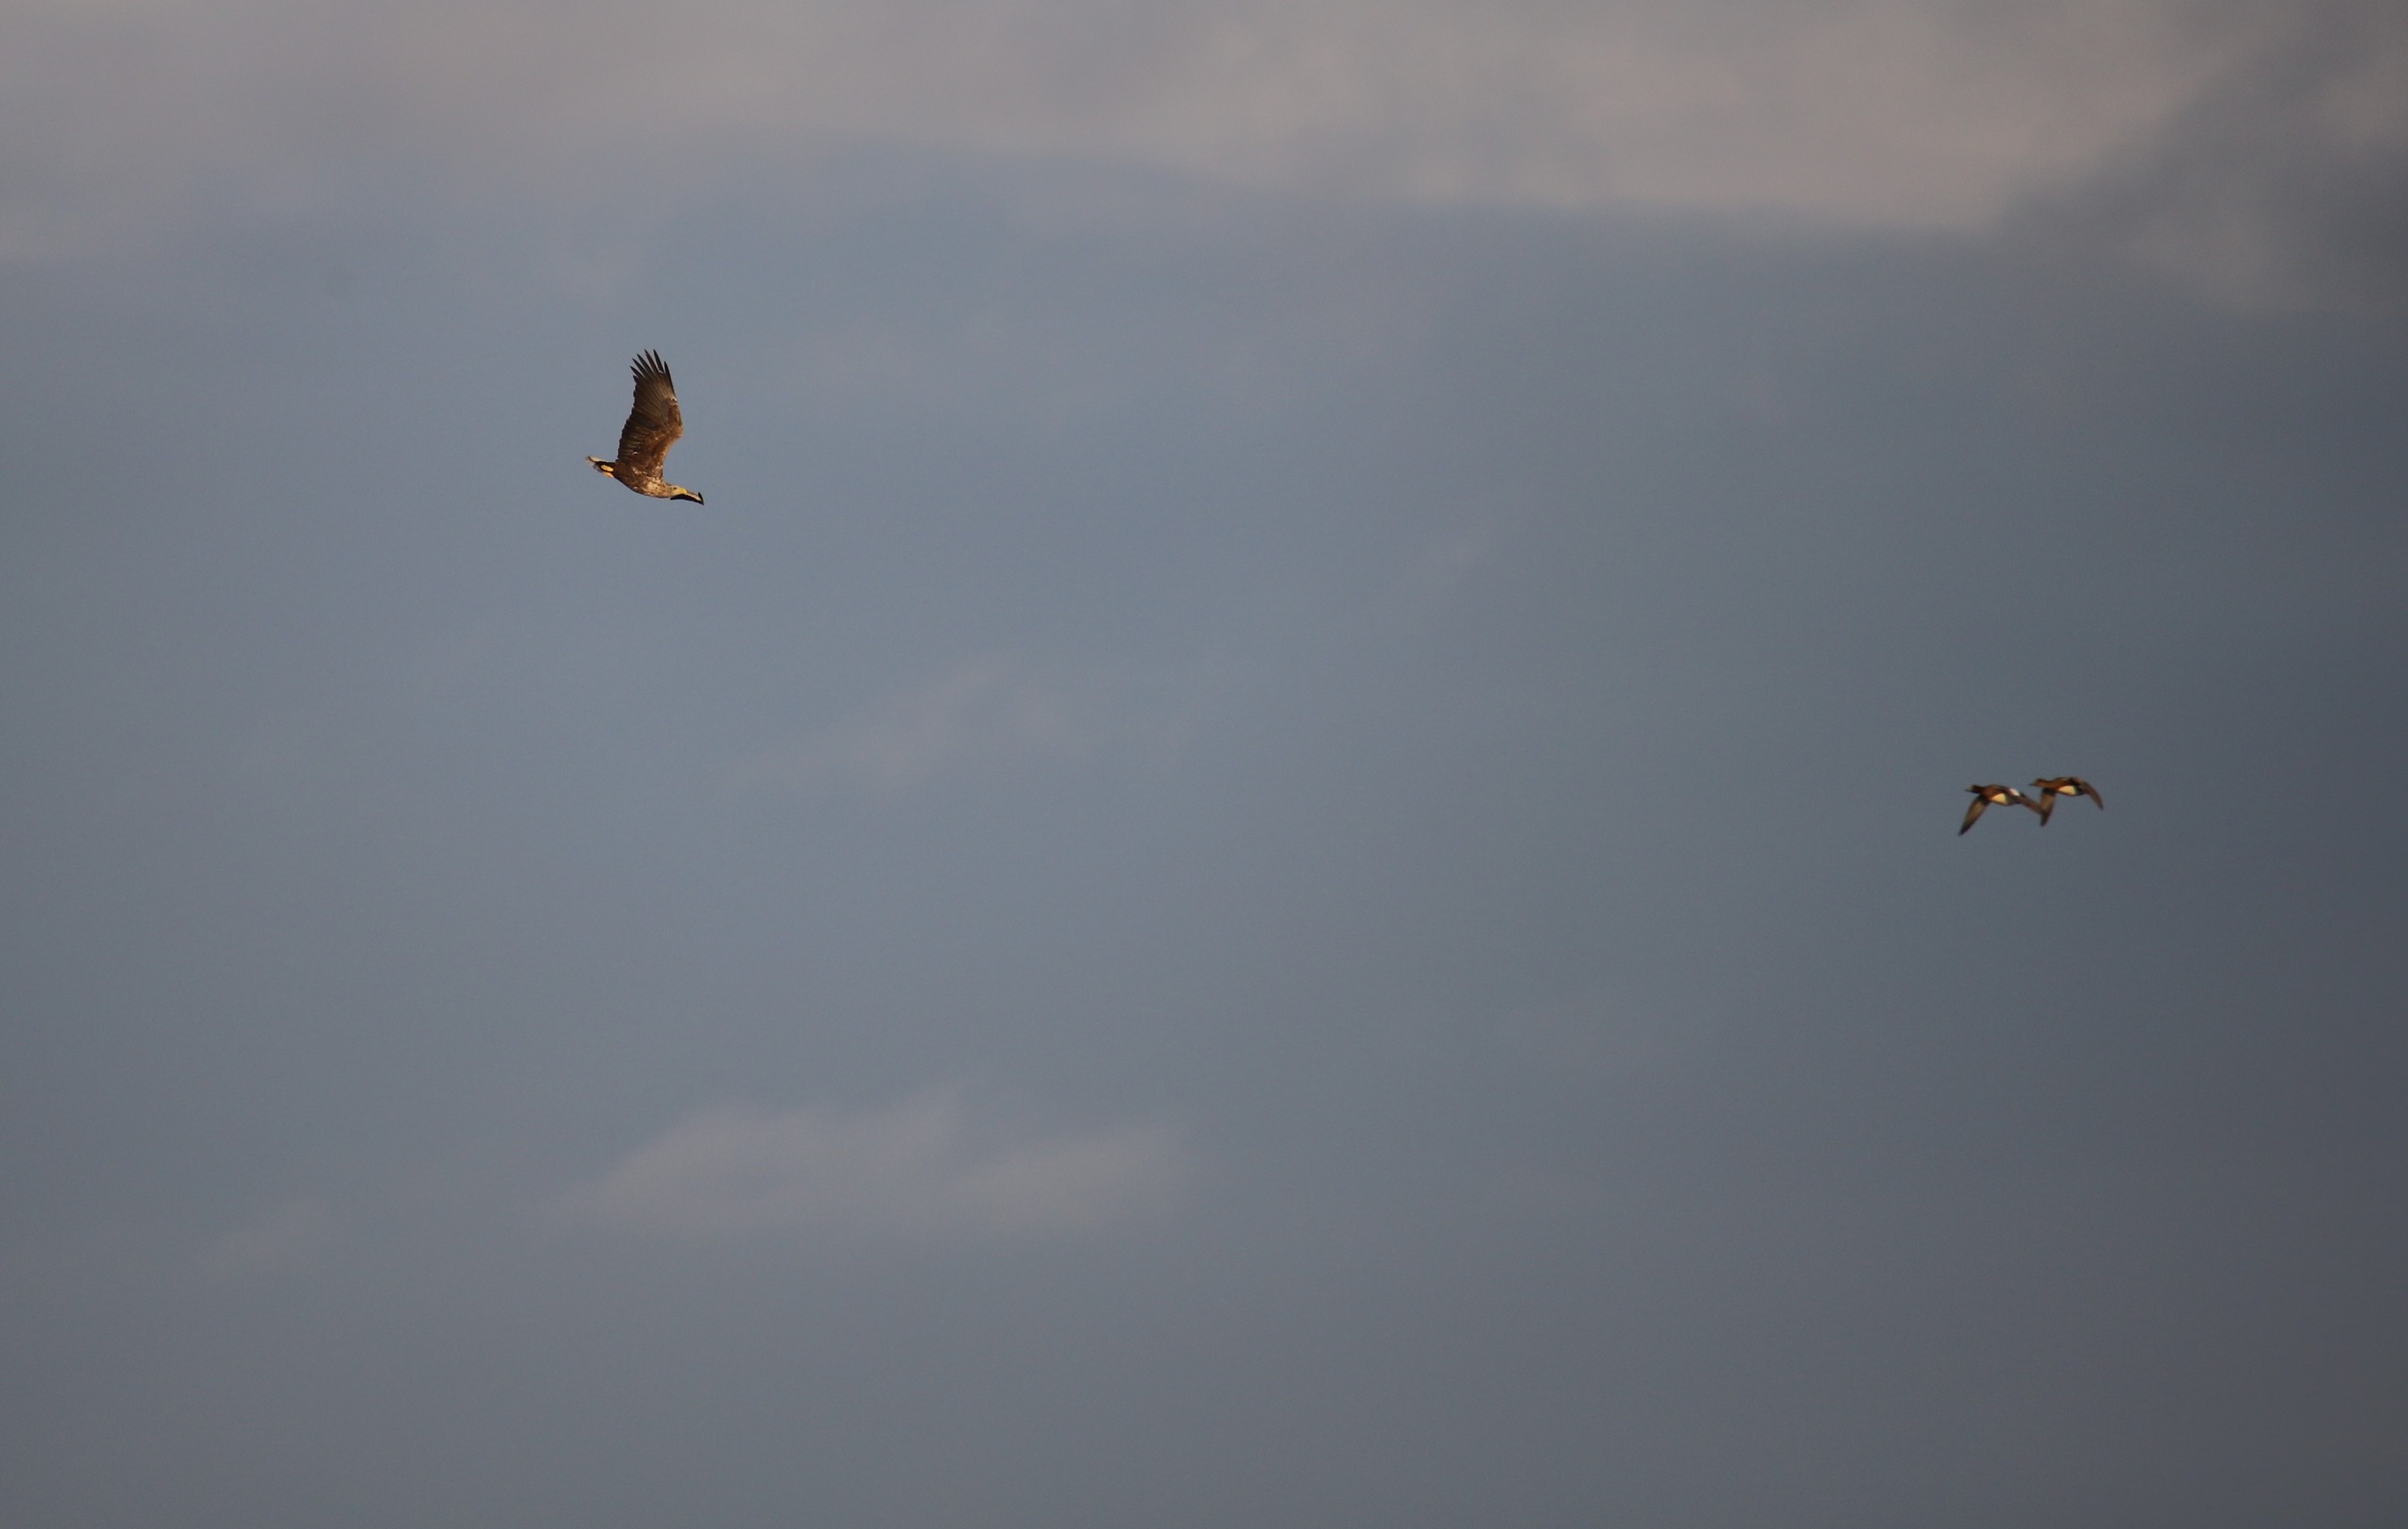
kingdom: Animalia
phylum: Chordata
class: Aves
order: Accipitriformes
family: Accipitridae
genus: Haliaeetus
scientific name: Haliaeetus albicilla
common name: Havørn
